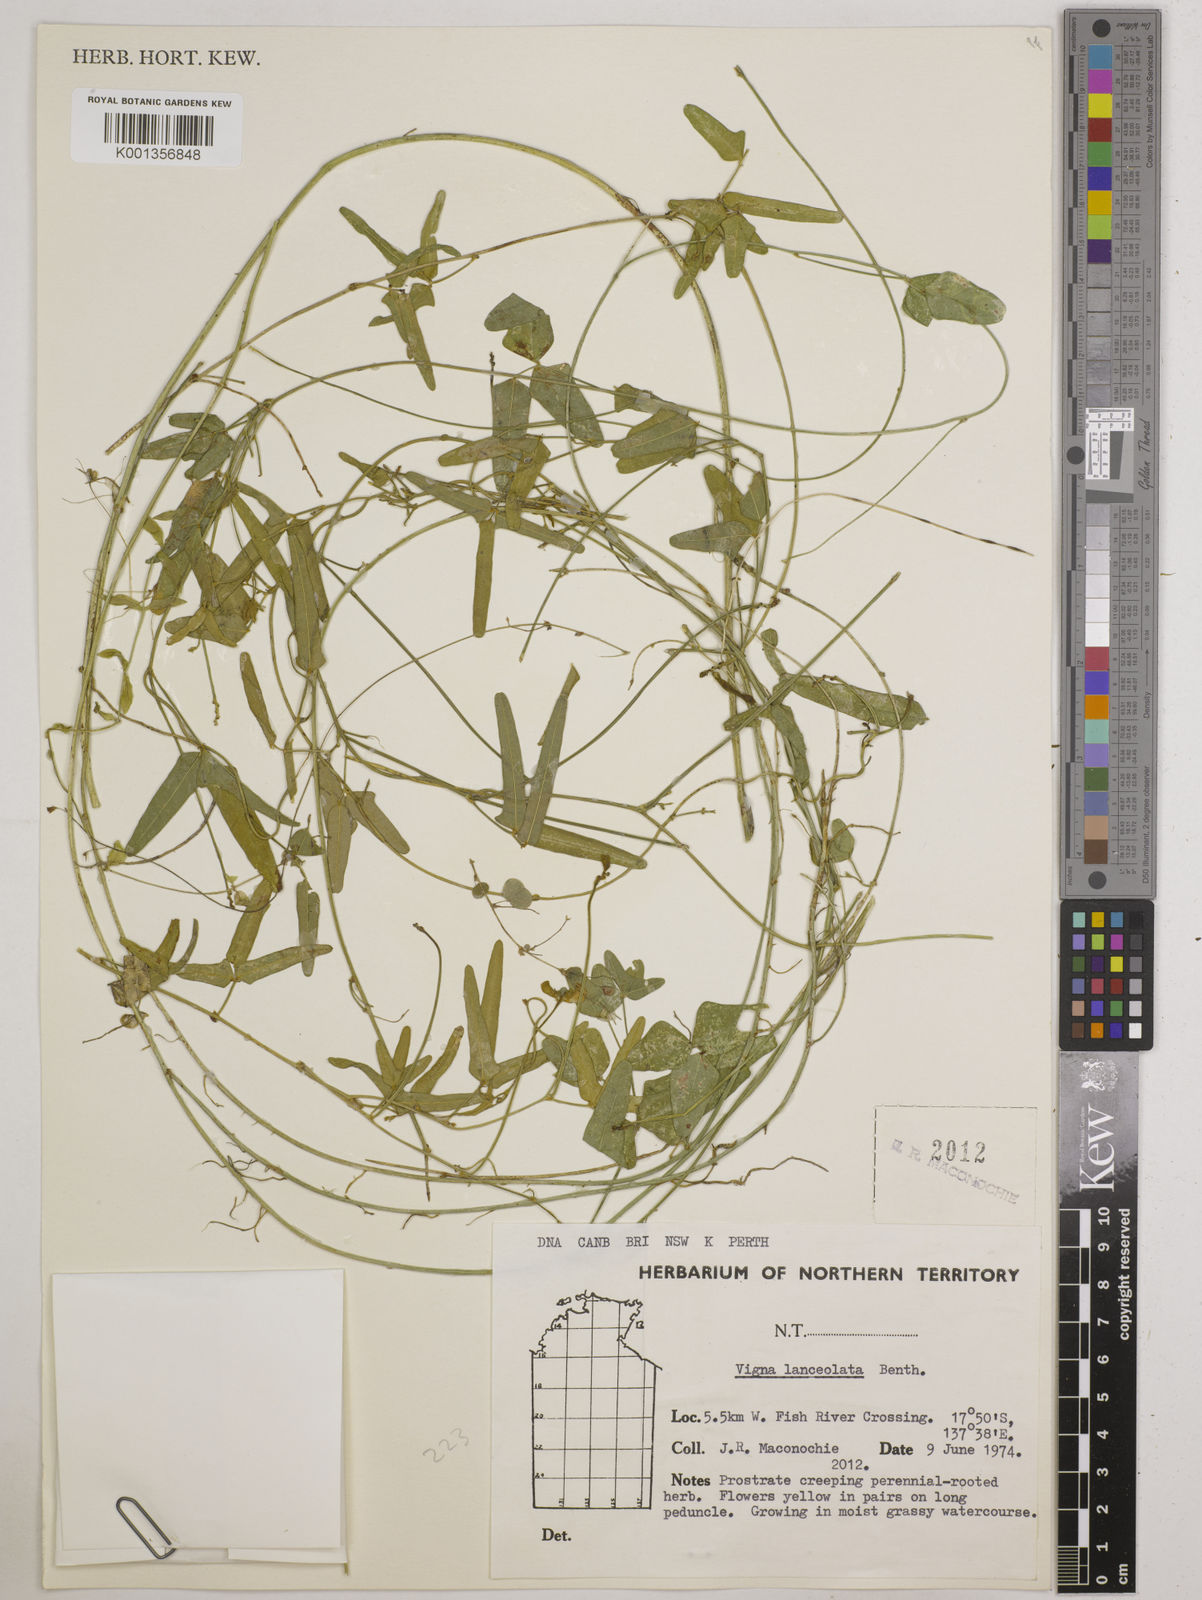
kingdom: Plantae
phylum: Tracheophyta
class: Magnoliopsida
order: Fabales
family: Fabaceae
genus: Vigna
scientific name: Vigna lanceolata
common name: Maloga-bean
